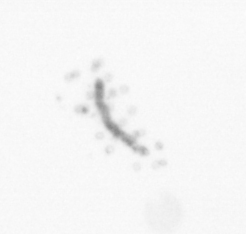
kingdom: Chromista
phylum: Ochrophyta
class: Bacillariophyceae
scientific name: Bacillariophyceae
